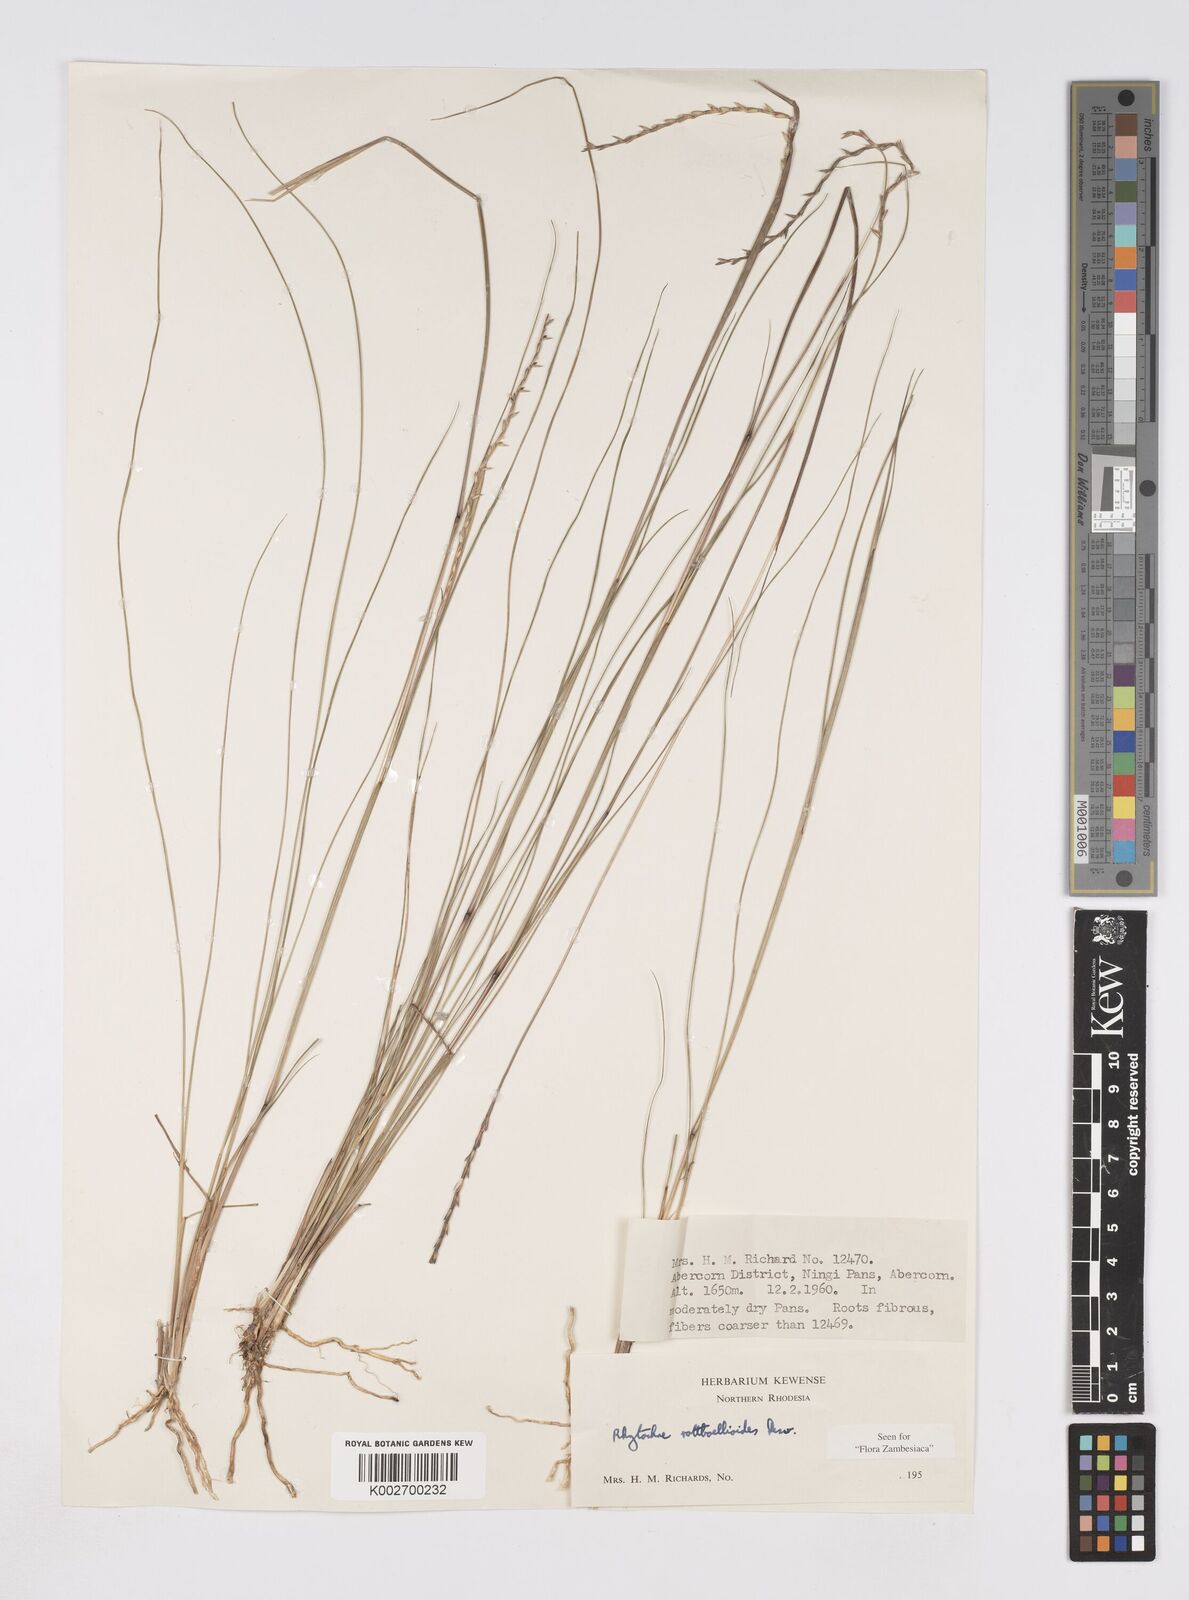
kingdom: Plantae
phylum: Tracheophyta
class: Liliopsida
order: Poales
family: Poaceae
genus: Rhytachne
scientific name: Rhytachne rottboellioides
